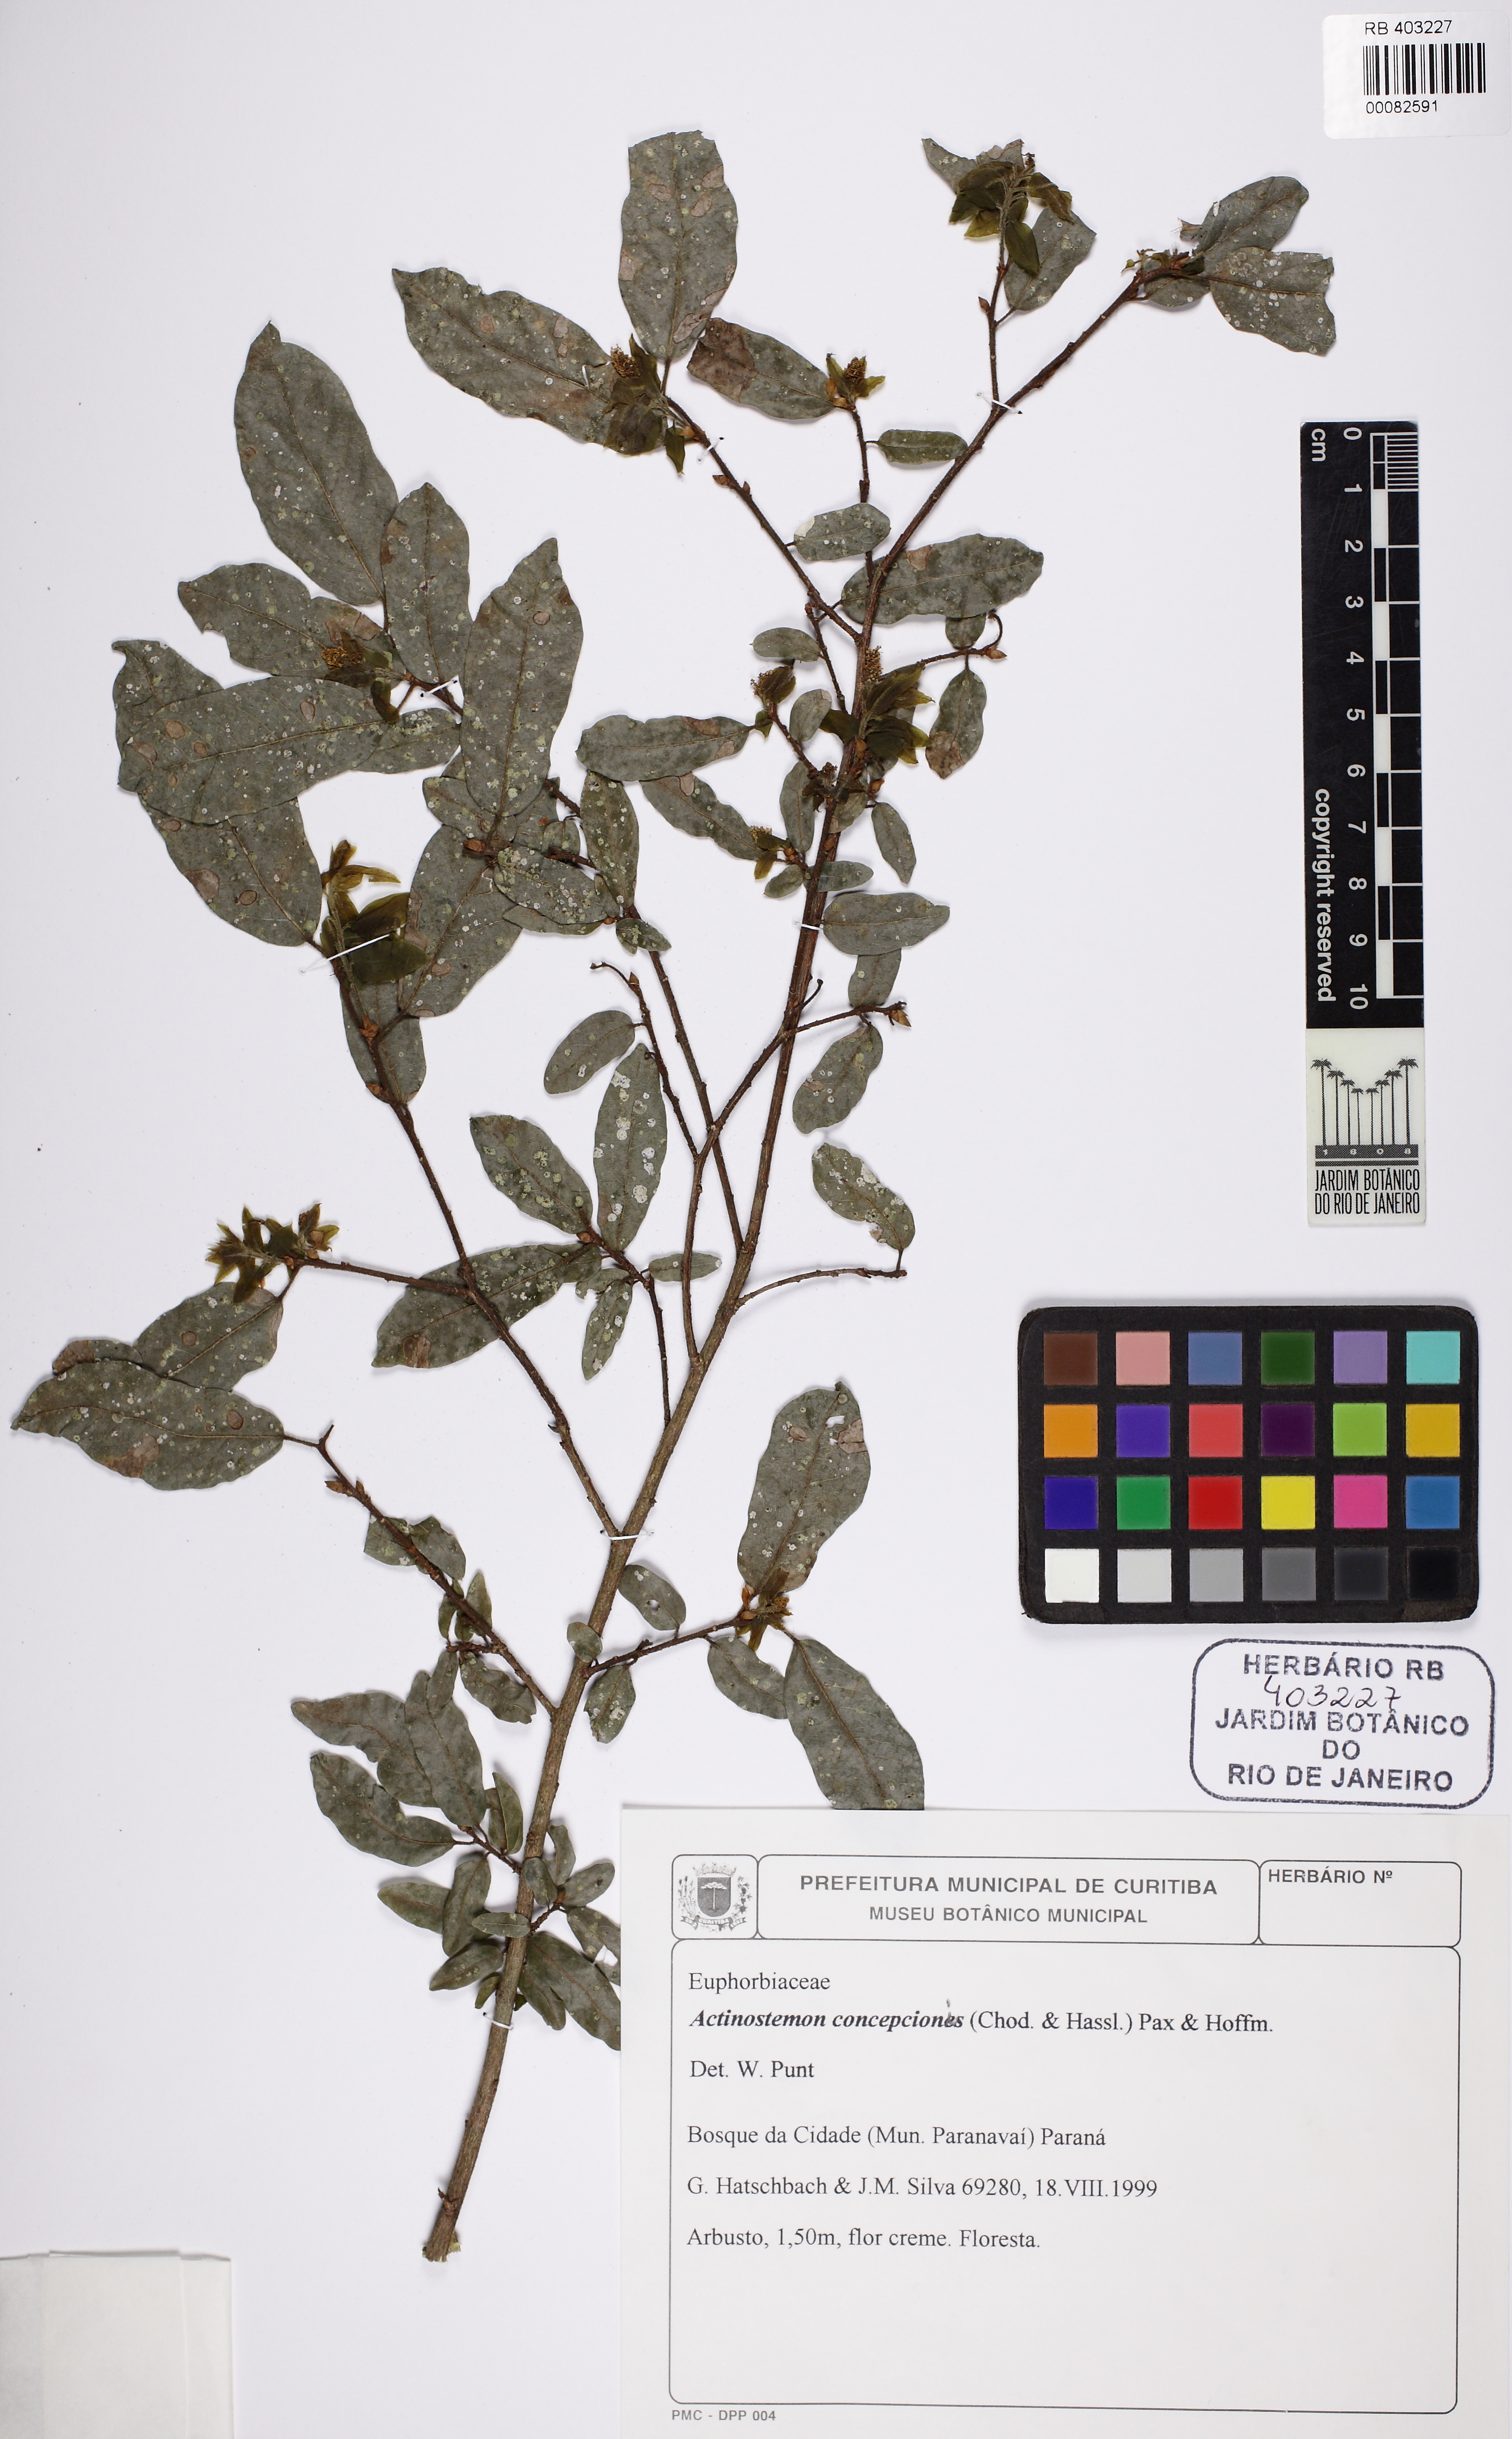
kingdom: Plantae
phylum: Tracheophyta
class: Magnoliopsida
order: Malpighiales
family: Euphorbiaceae
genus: Actinostemon
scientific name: Actinostemon klotzschii
